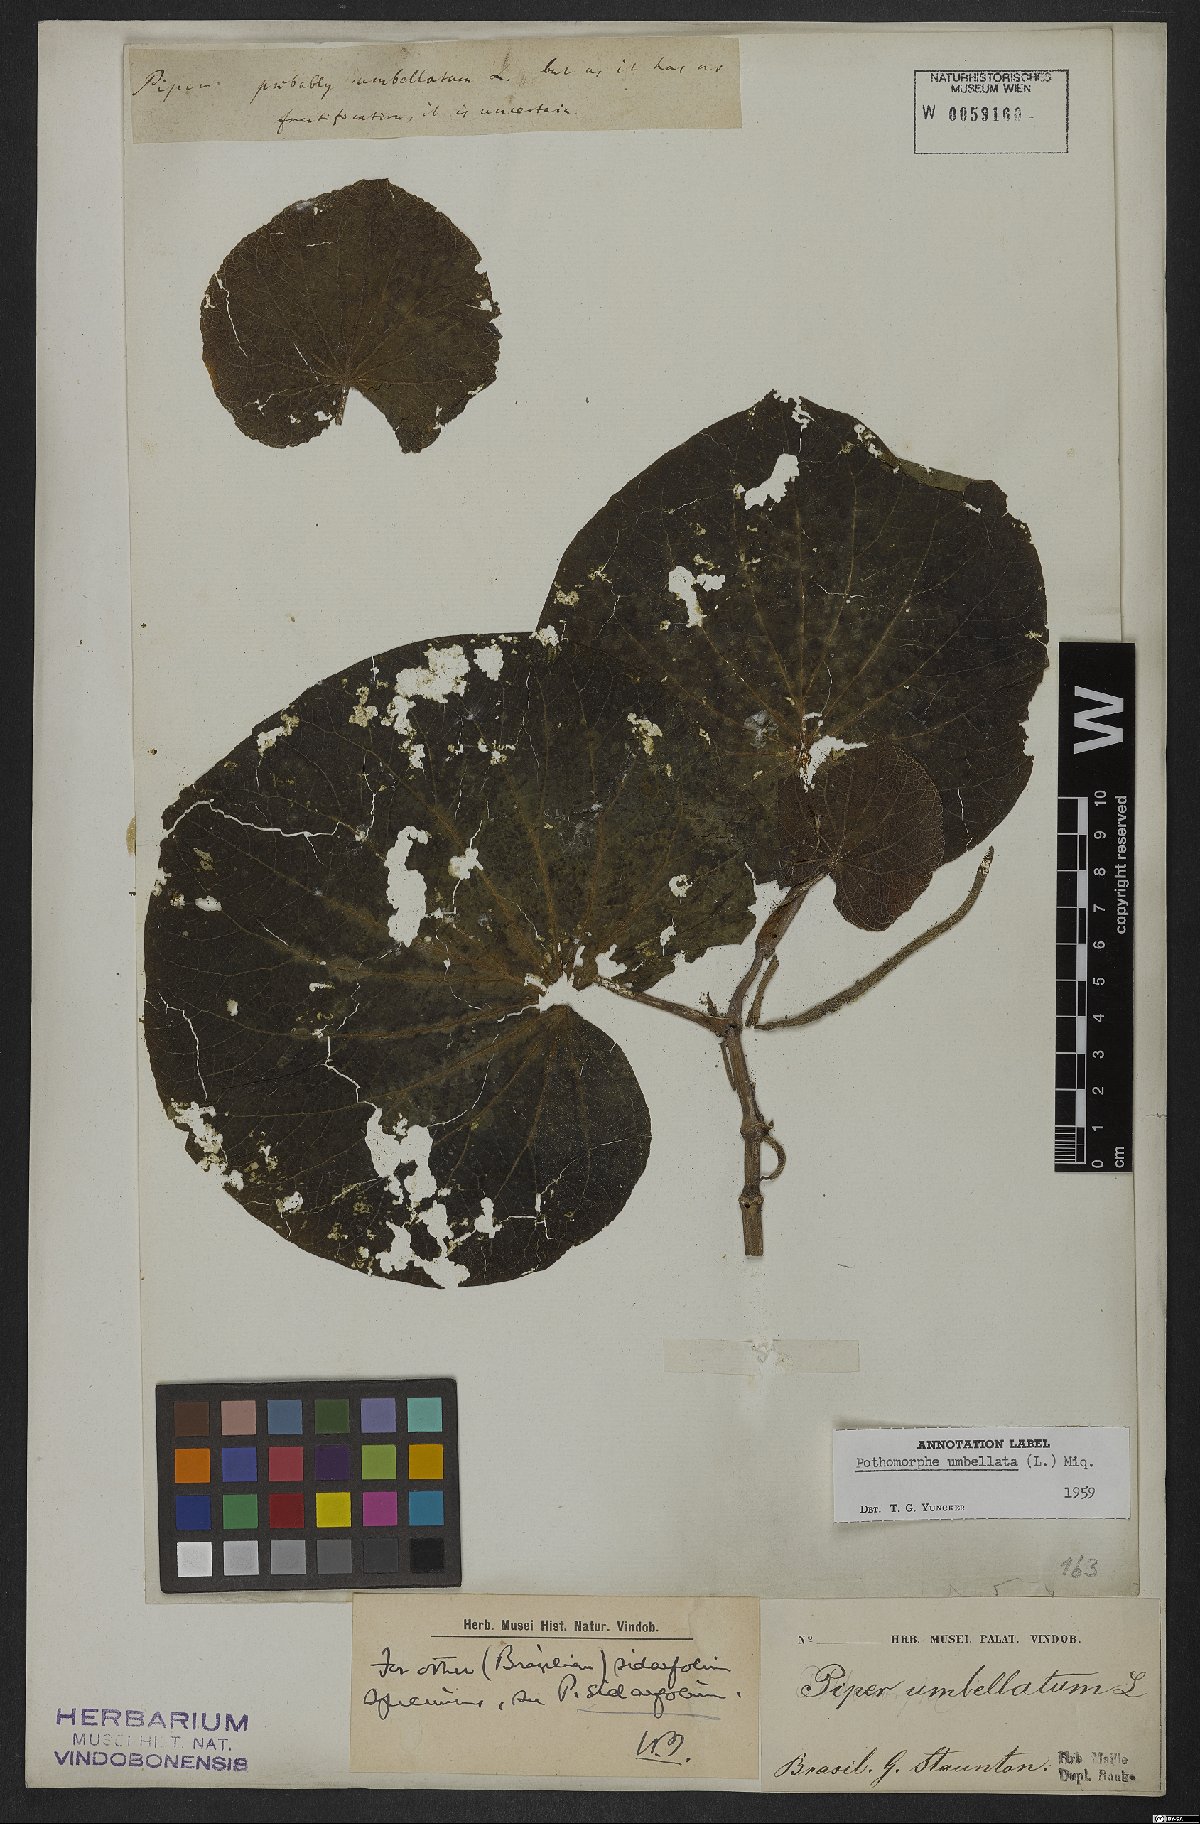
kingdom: Plantae
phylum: Tracheophyta
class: Magnoliopsida
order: Piperales
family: Piperaceae
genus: Piper
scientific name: Piper umbellatum
